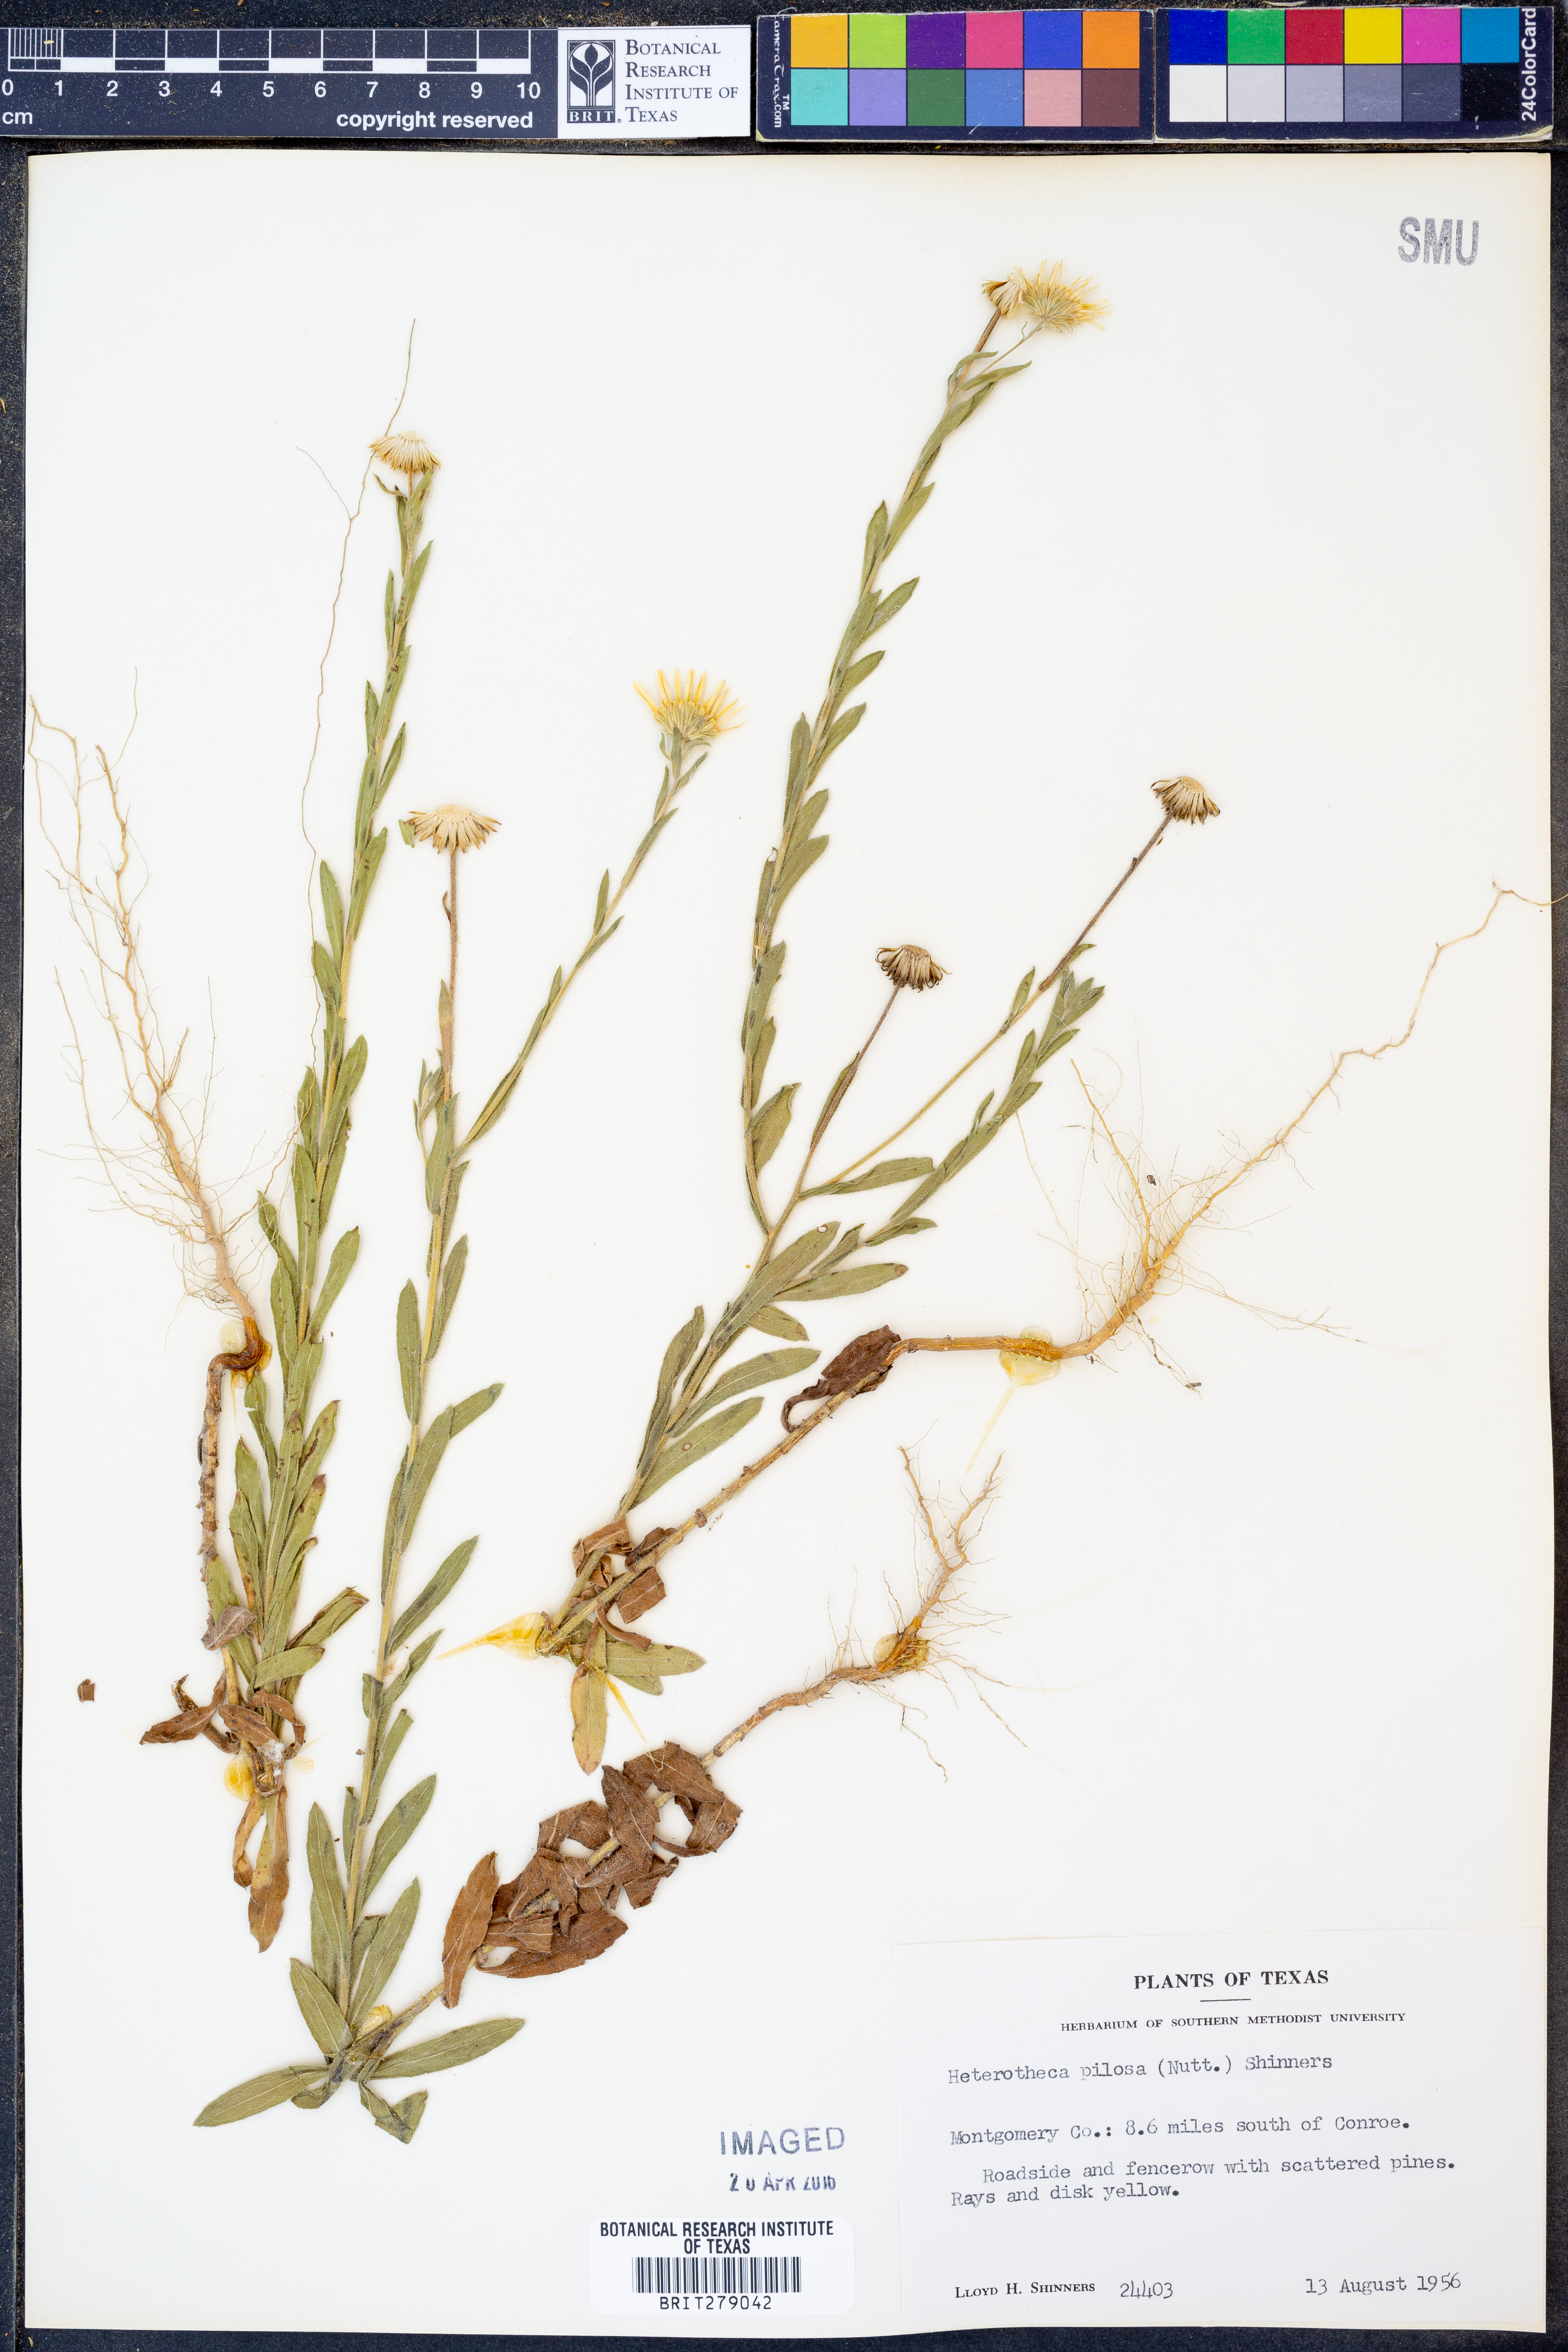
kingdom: Plantae
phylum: Tracheophyta
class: Magnoliopsida
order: Asterales
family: Asteraceae
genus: Bradburia
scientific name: Bradburia pilosa
